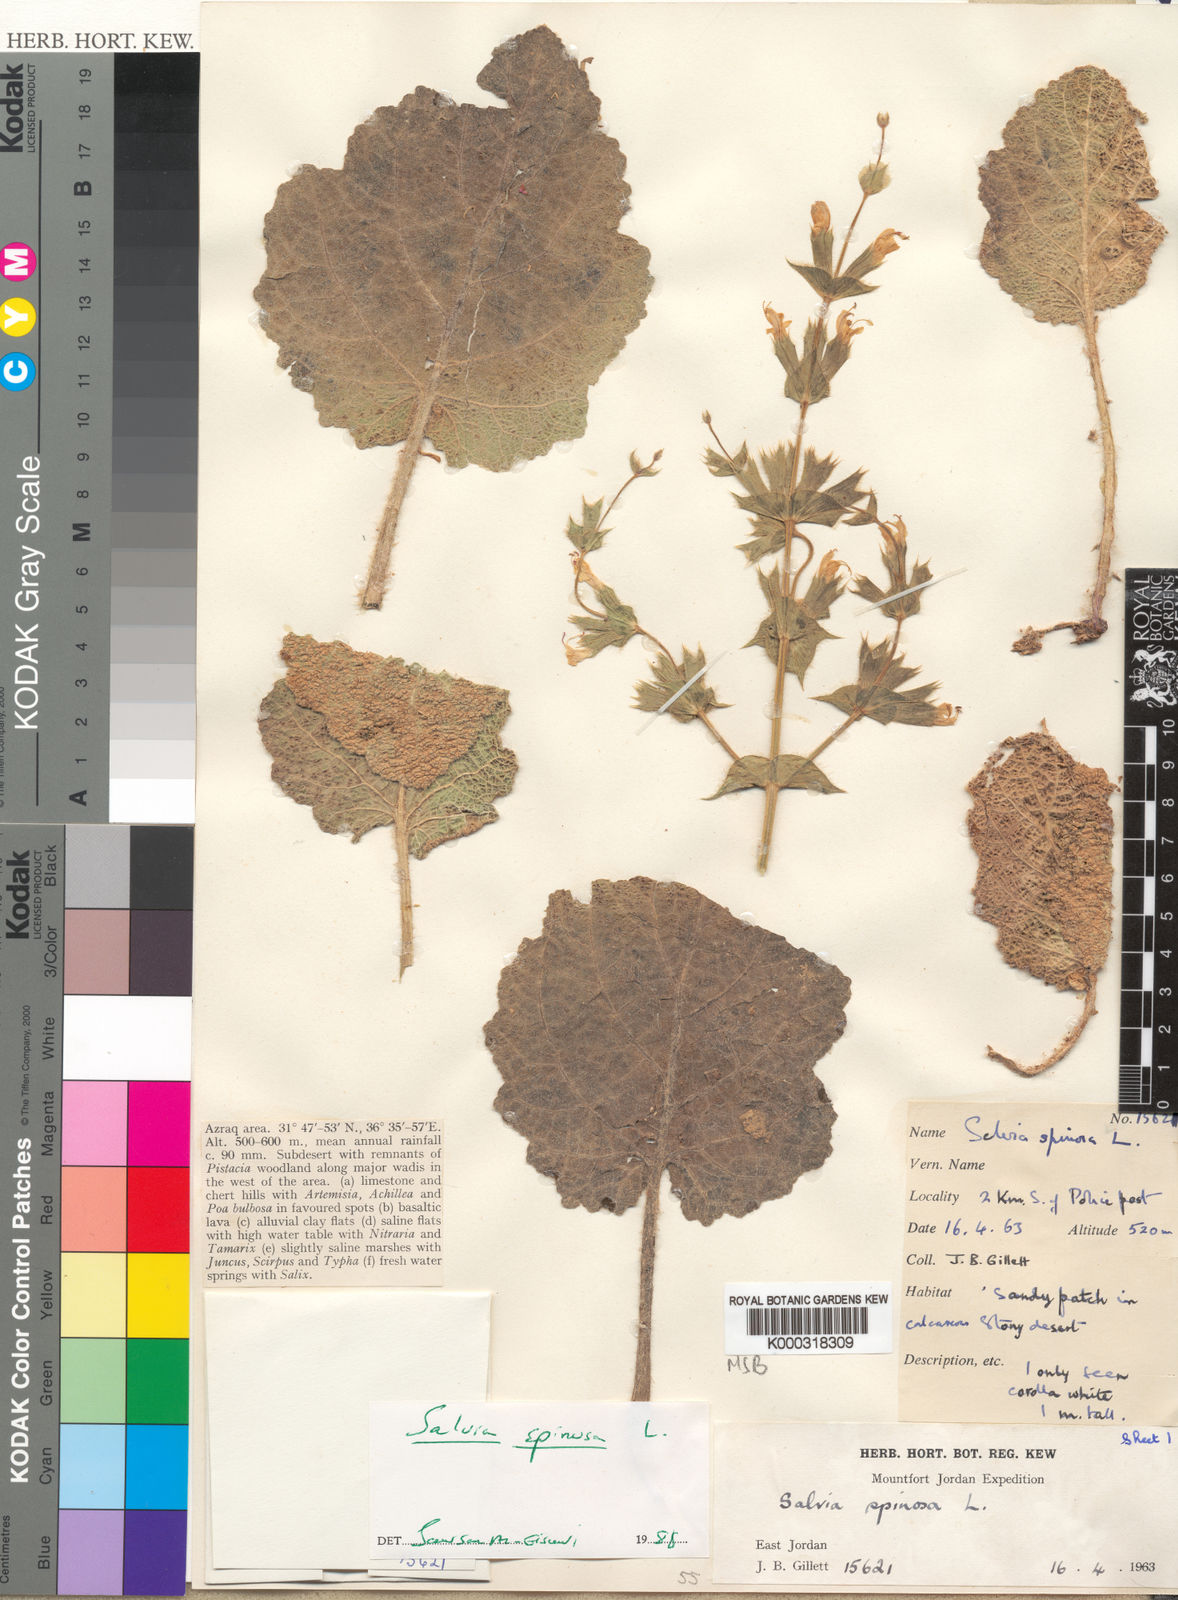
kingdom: Plantae
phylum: Tracheophyta
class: Magnoliopsida
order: Lamiales
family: Lamiaceae
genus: Salvia
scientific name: Salvia spinosa
